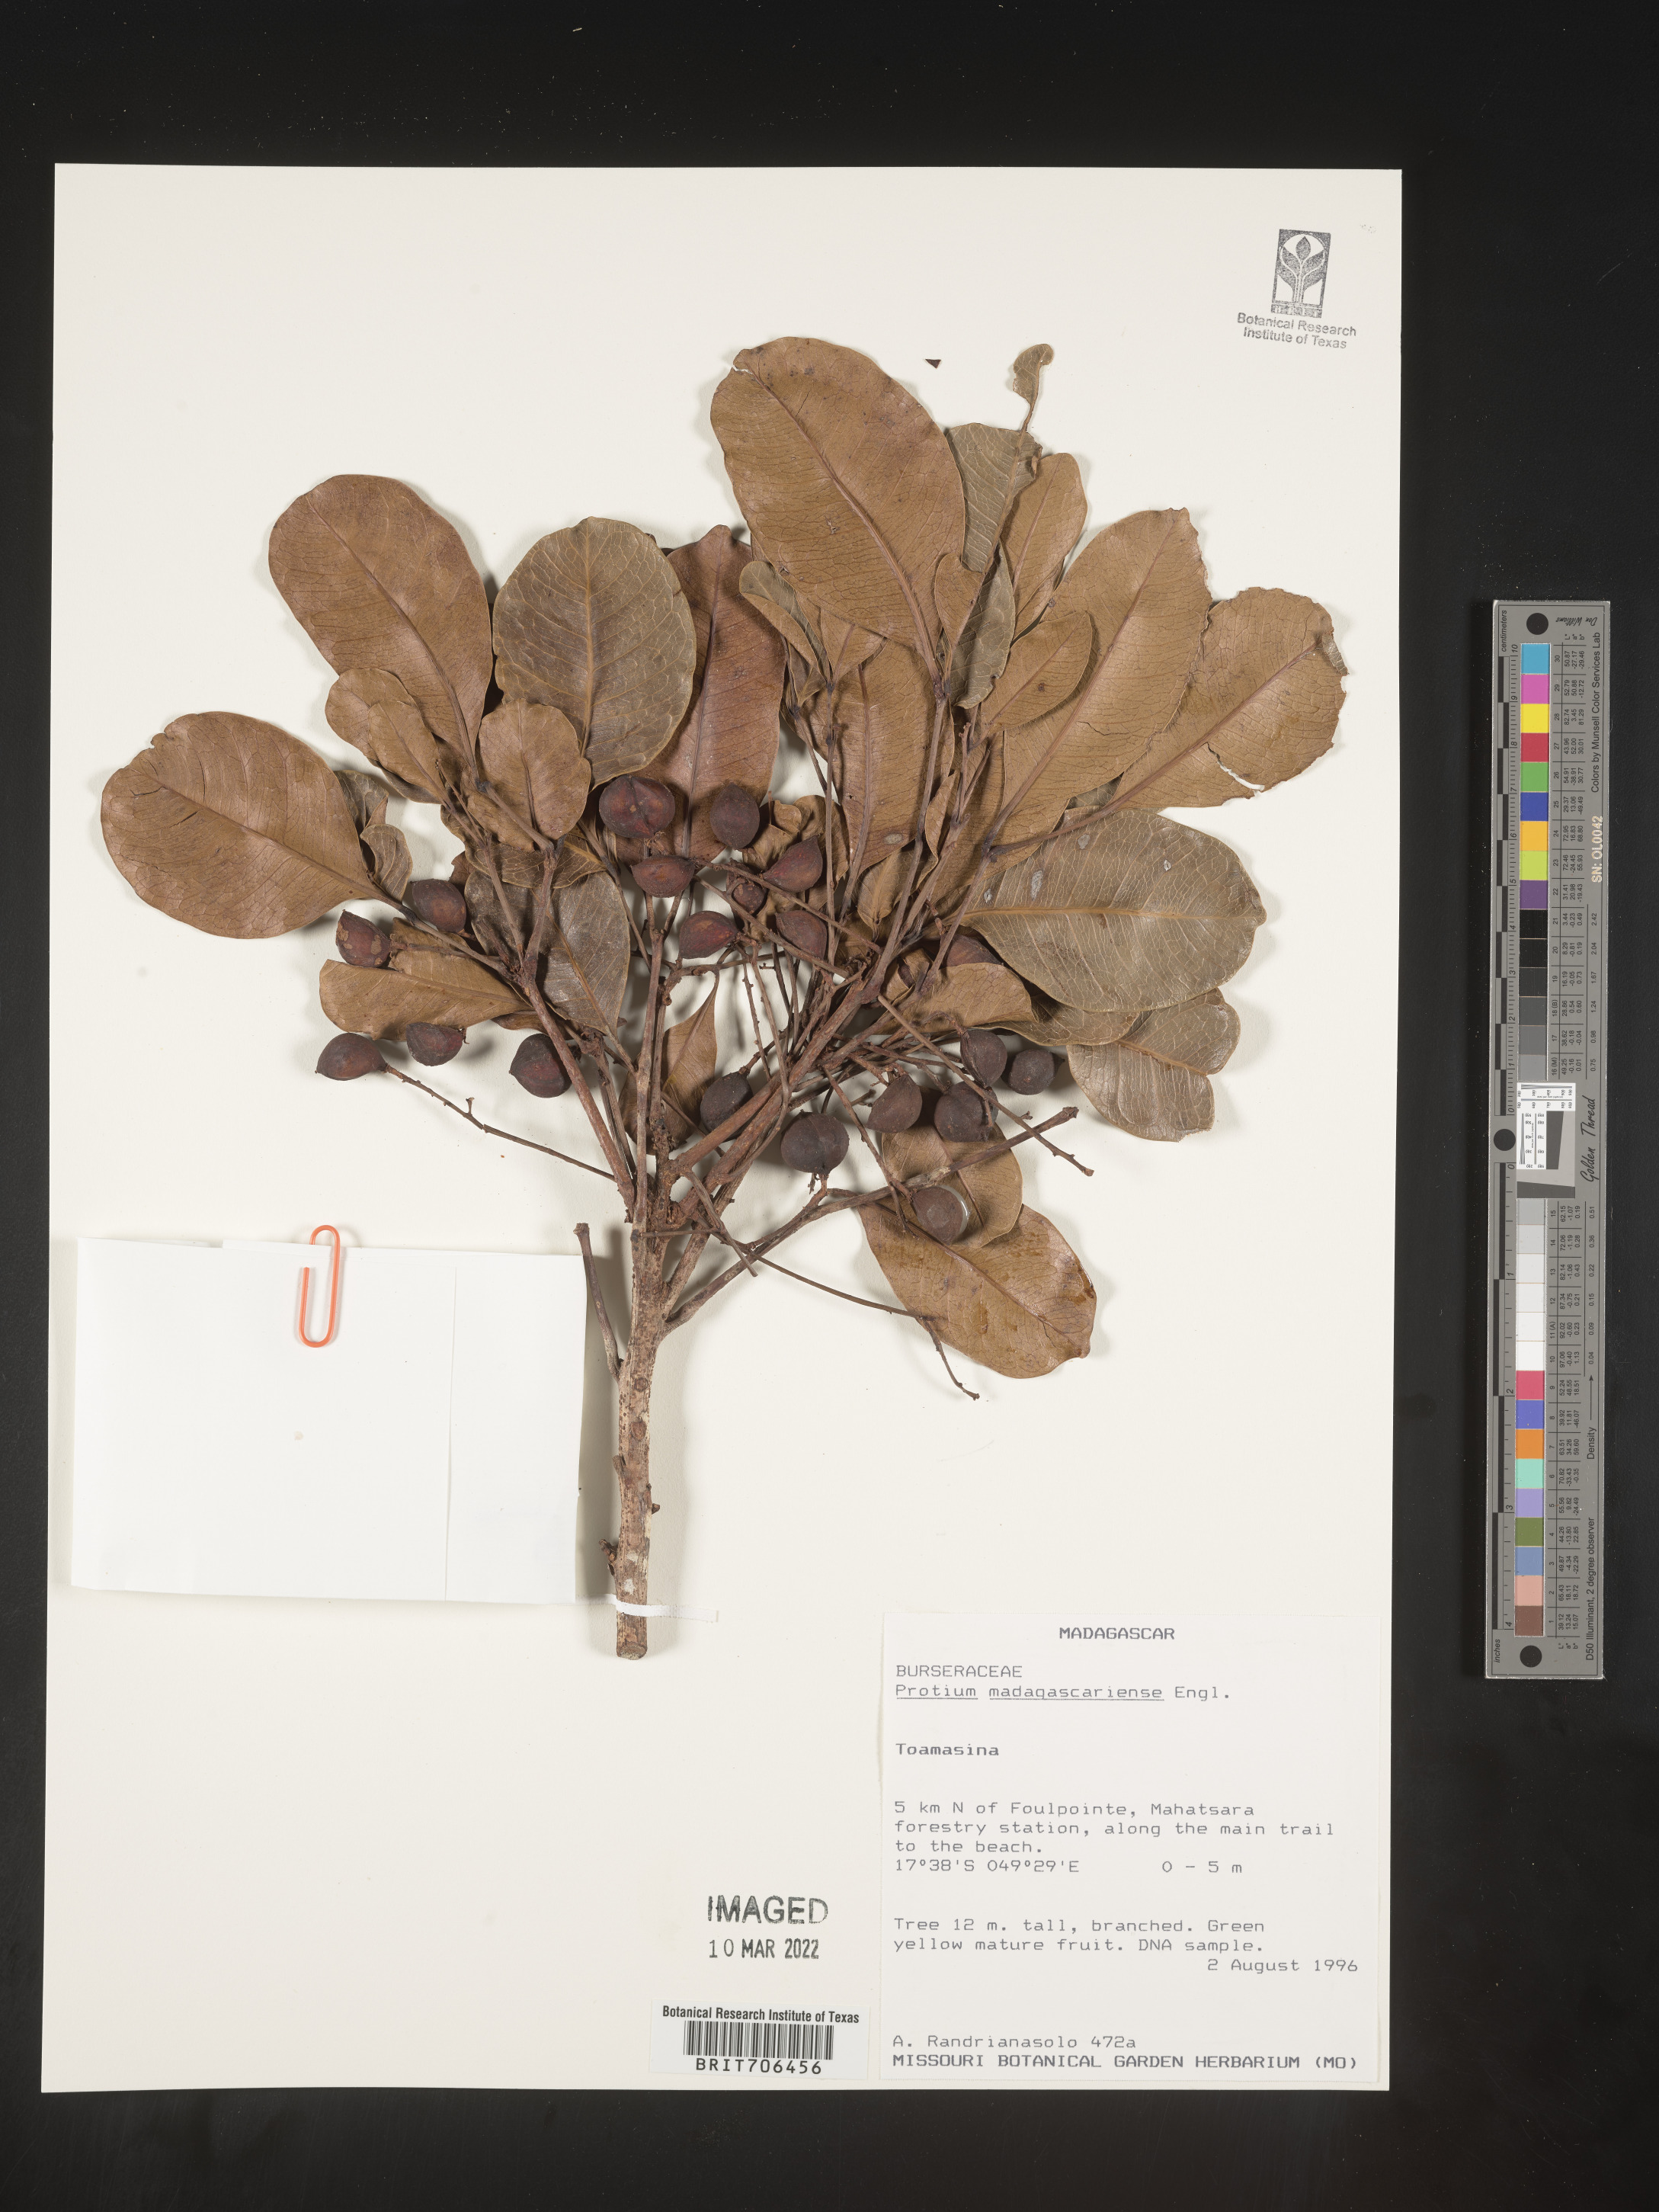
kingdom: Plantae
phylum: Tracheophyta
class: Magnoliopsida
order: Sapindales
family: Burseraceae
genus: Protium
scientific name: Protium
